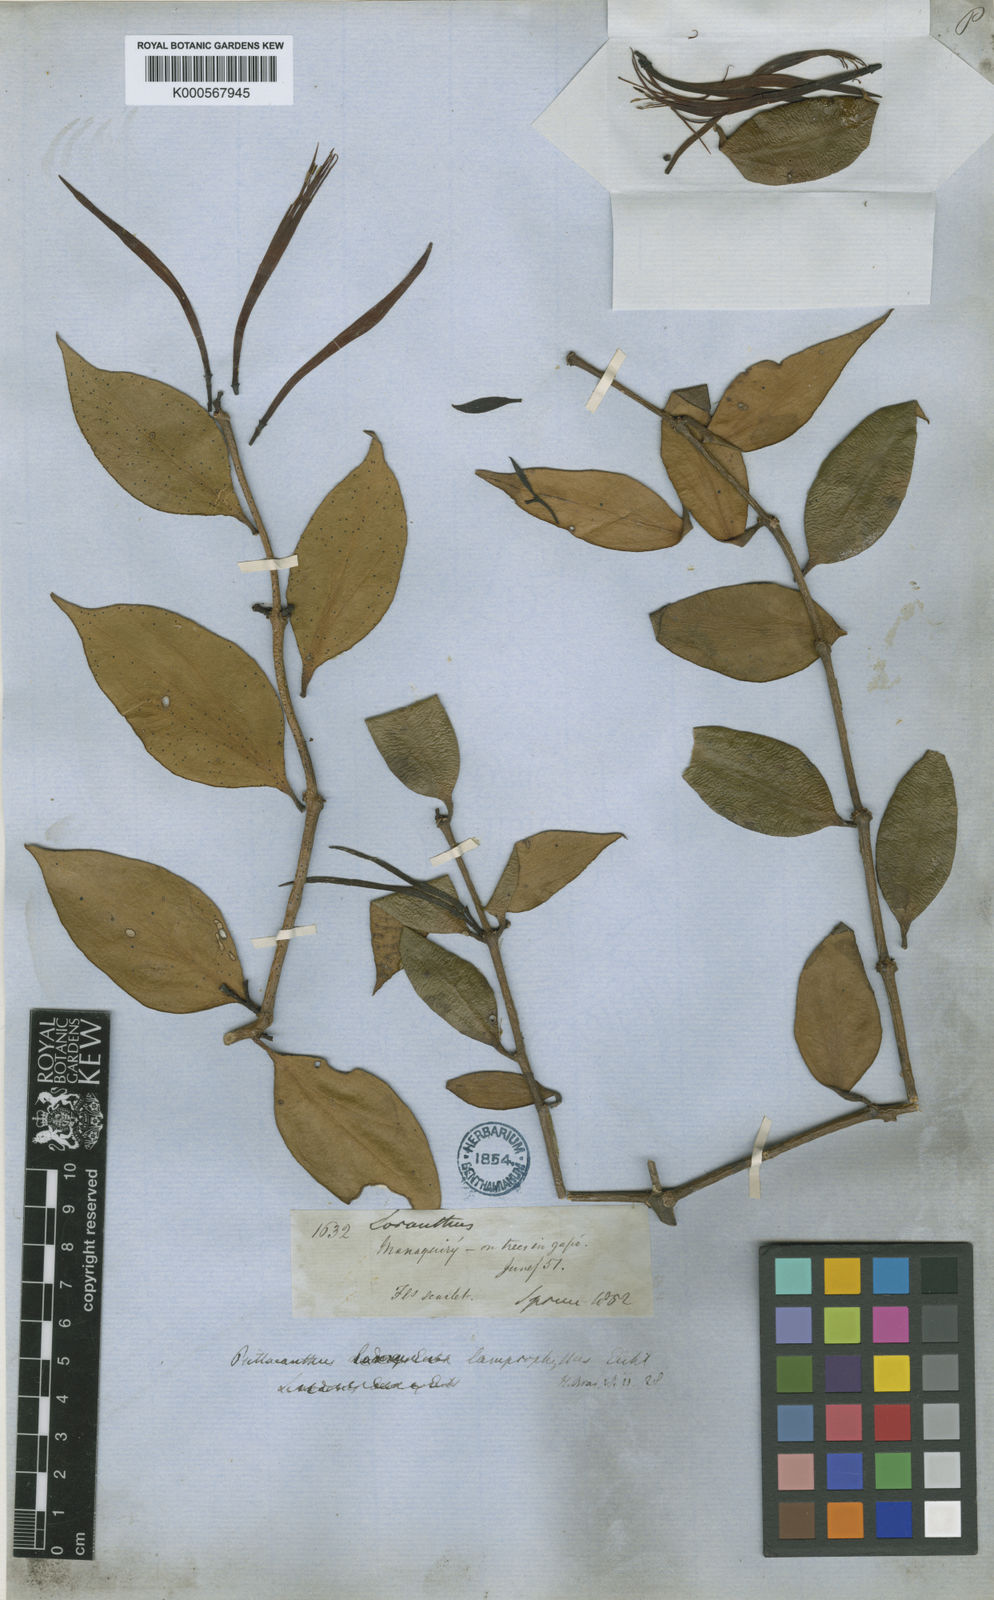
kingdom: Plantae
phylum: Tracheophyta
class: Magnoliopsida
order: Santalales
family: Loranthaceae
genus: Psittacanthus
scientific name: Psittacanthus lamprophyllus
